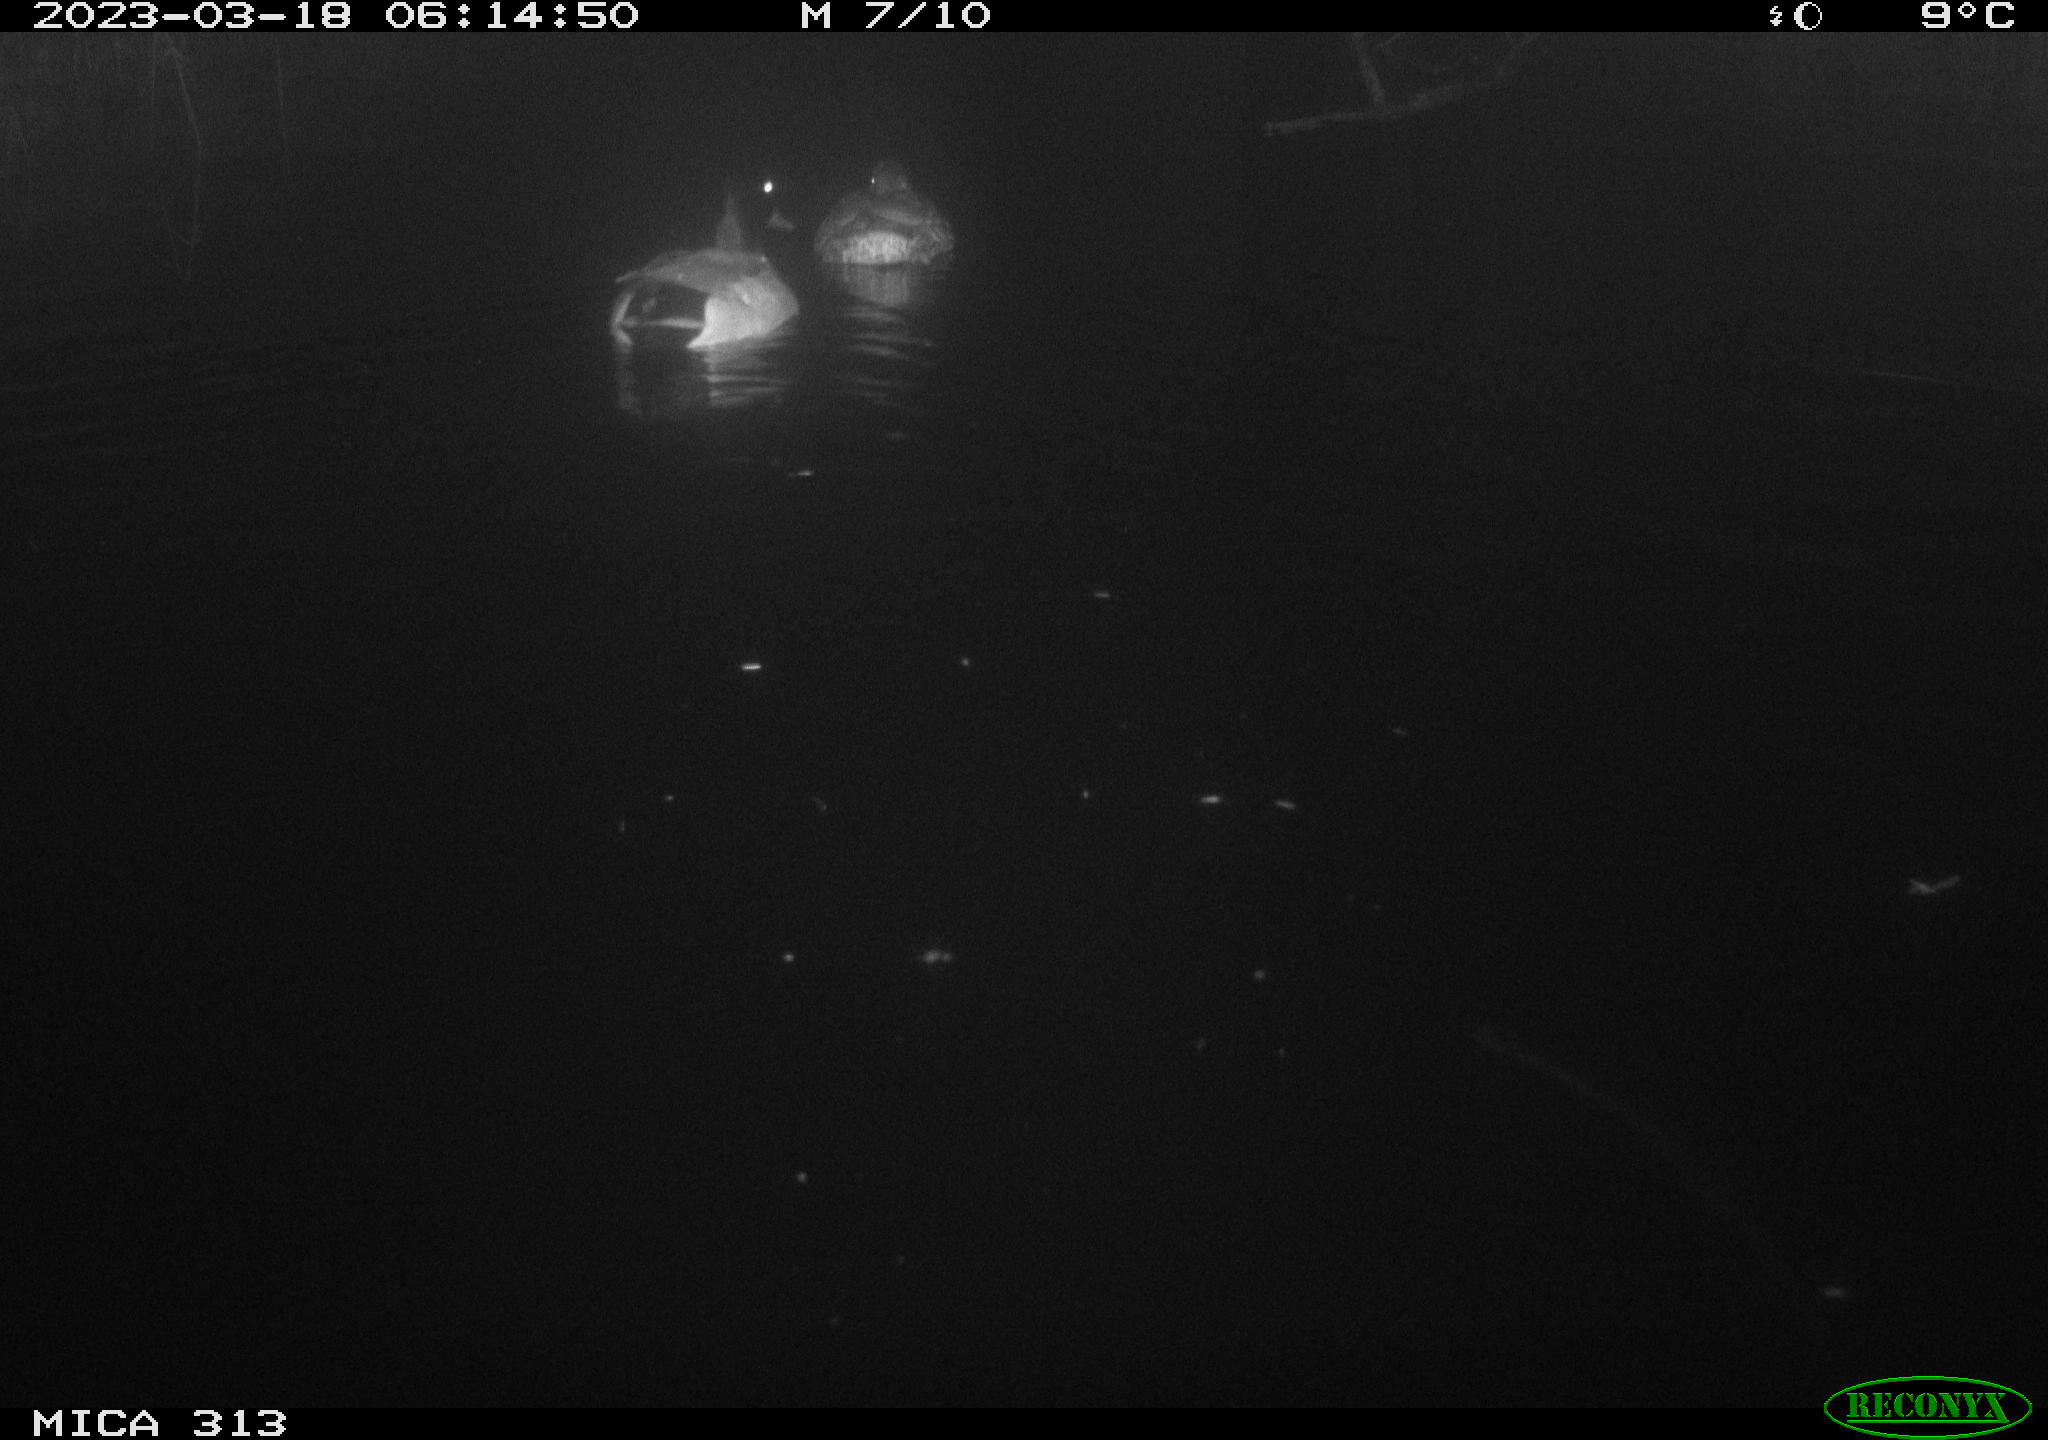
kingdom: Animalia
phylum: Chordata
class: Aves
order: Anseriformes
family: Anatidae
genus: Anas
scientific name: Anas
